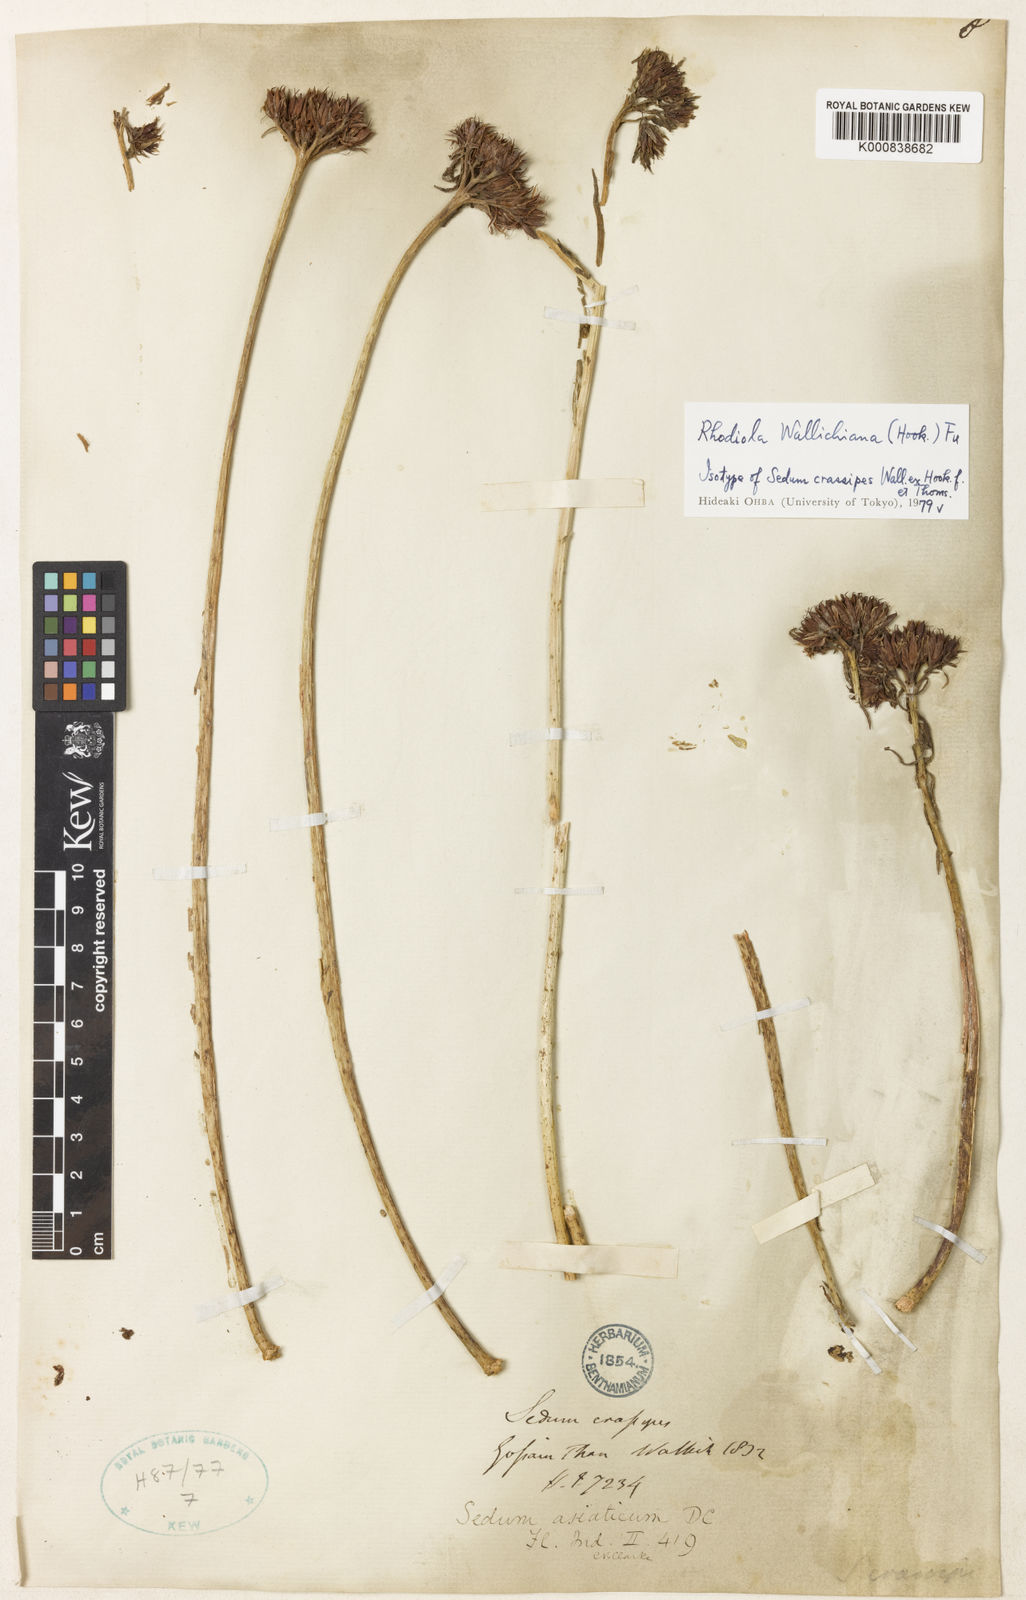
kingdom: Plantae
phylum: Tracheophyta
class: Magnoliopsida
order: Saxifragales
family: Crassulaceae
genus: Rhodiola
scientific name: Rhodiola wallichiana
